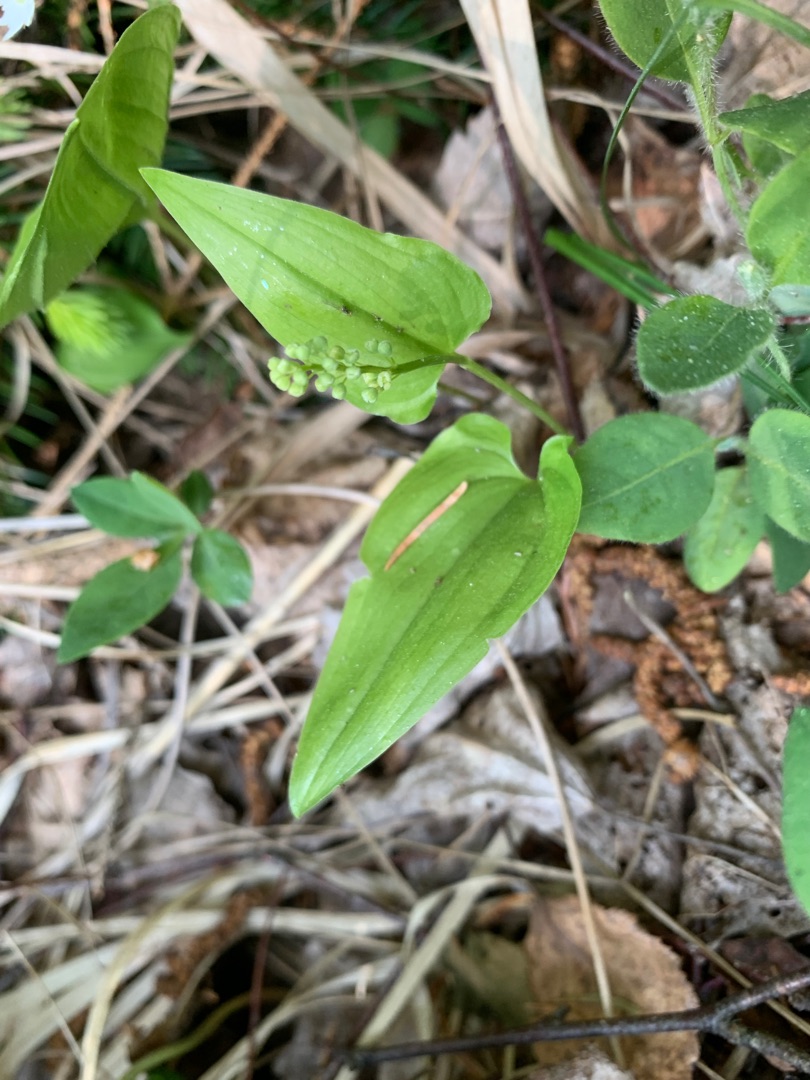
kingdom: Plantae
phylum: Tracheophyta
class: Liliopsida
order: Asparagales
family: Asparagaceae
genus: Maianthemum
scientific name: Maianthemum bifolium
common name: Majblomst
